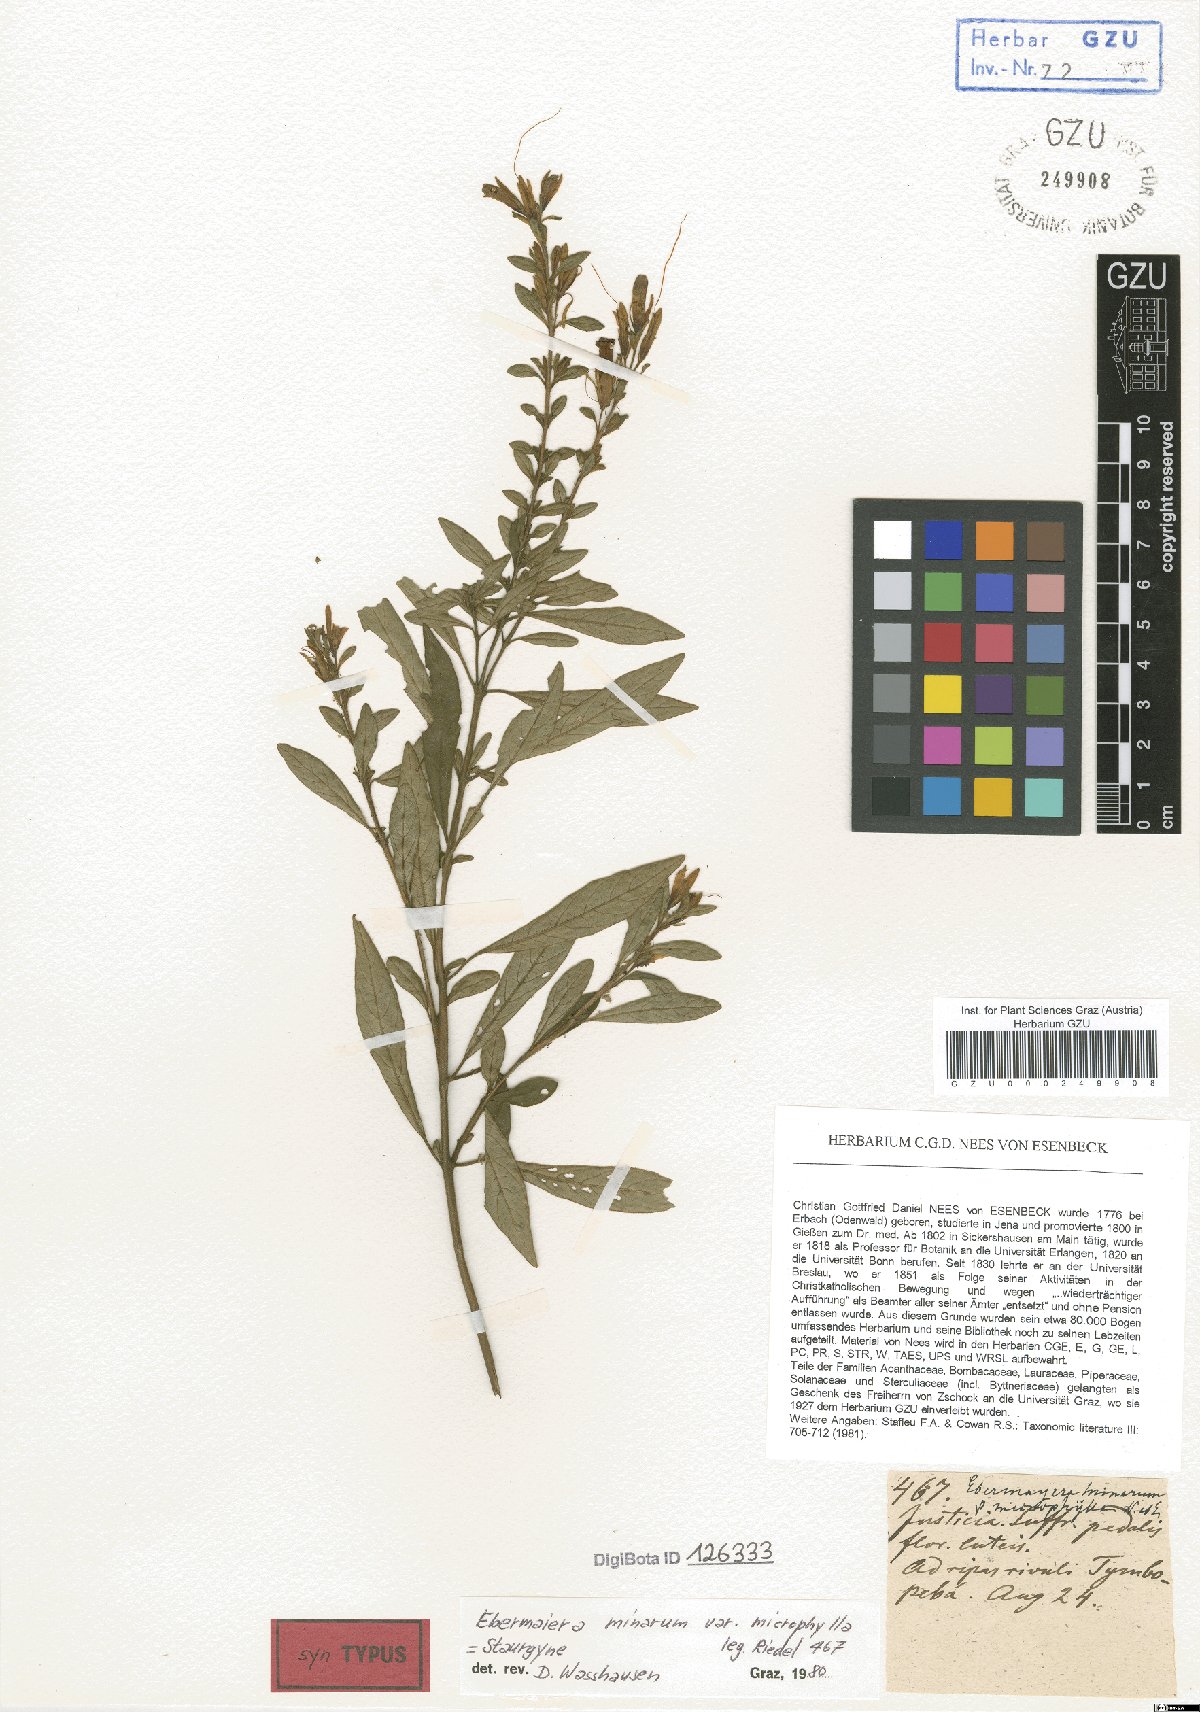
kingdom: Plantae
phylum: Tracheophyta
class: Magnoliopsida
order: Lamiales
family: Acanthaceae
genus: Staurogyne
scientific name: Staurogyne ericoides
